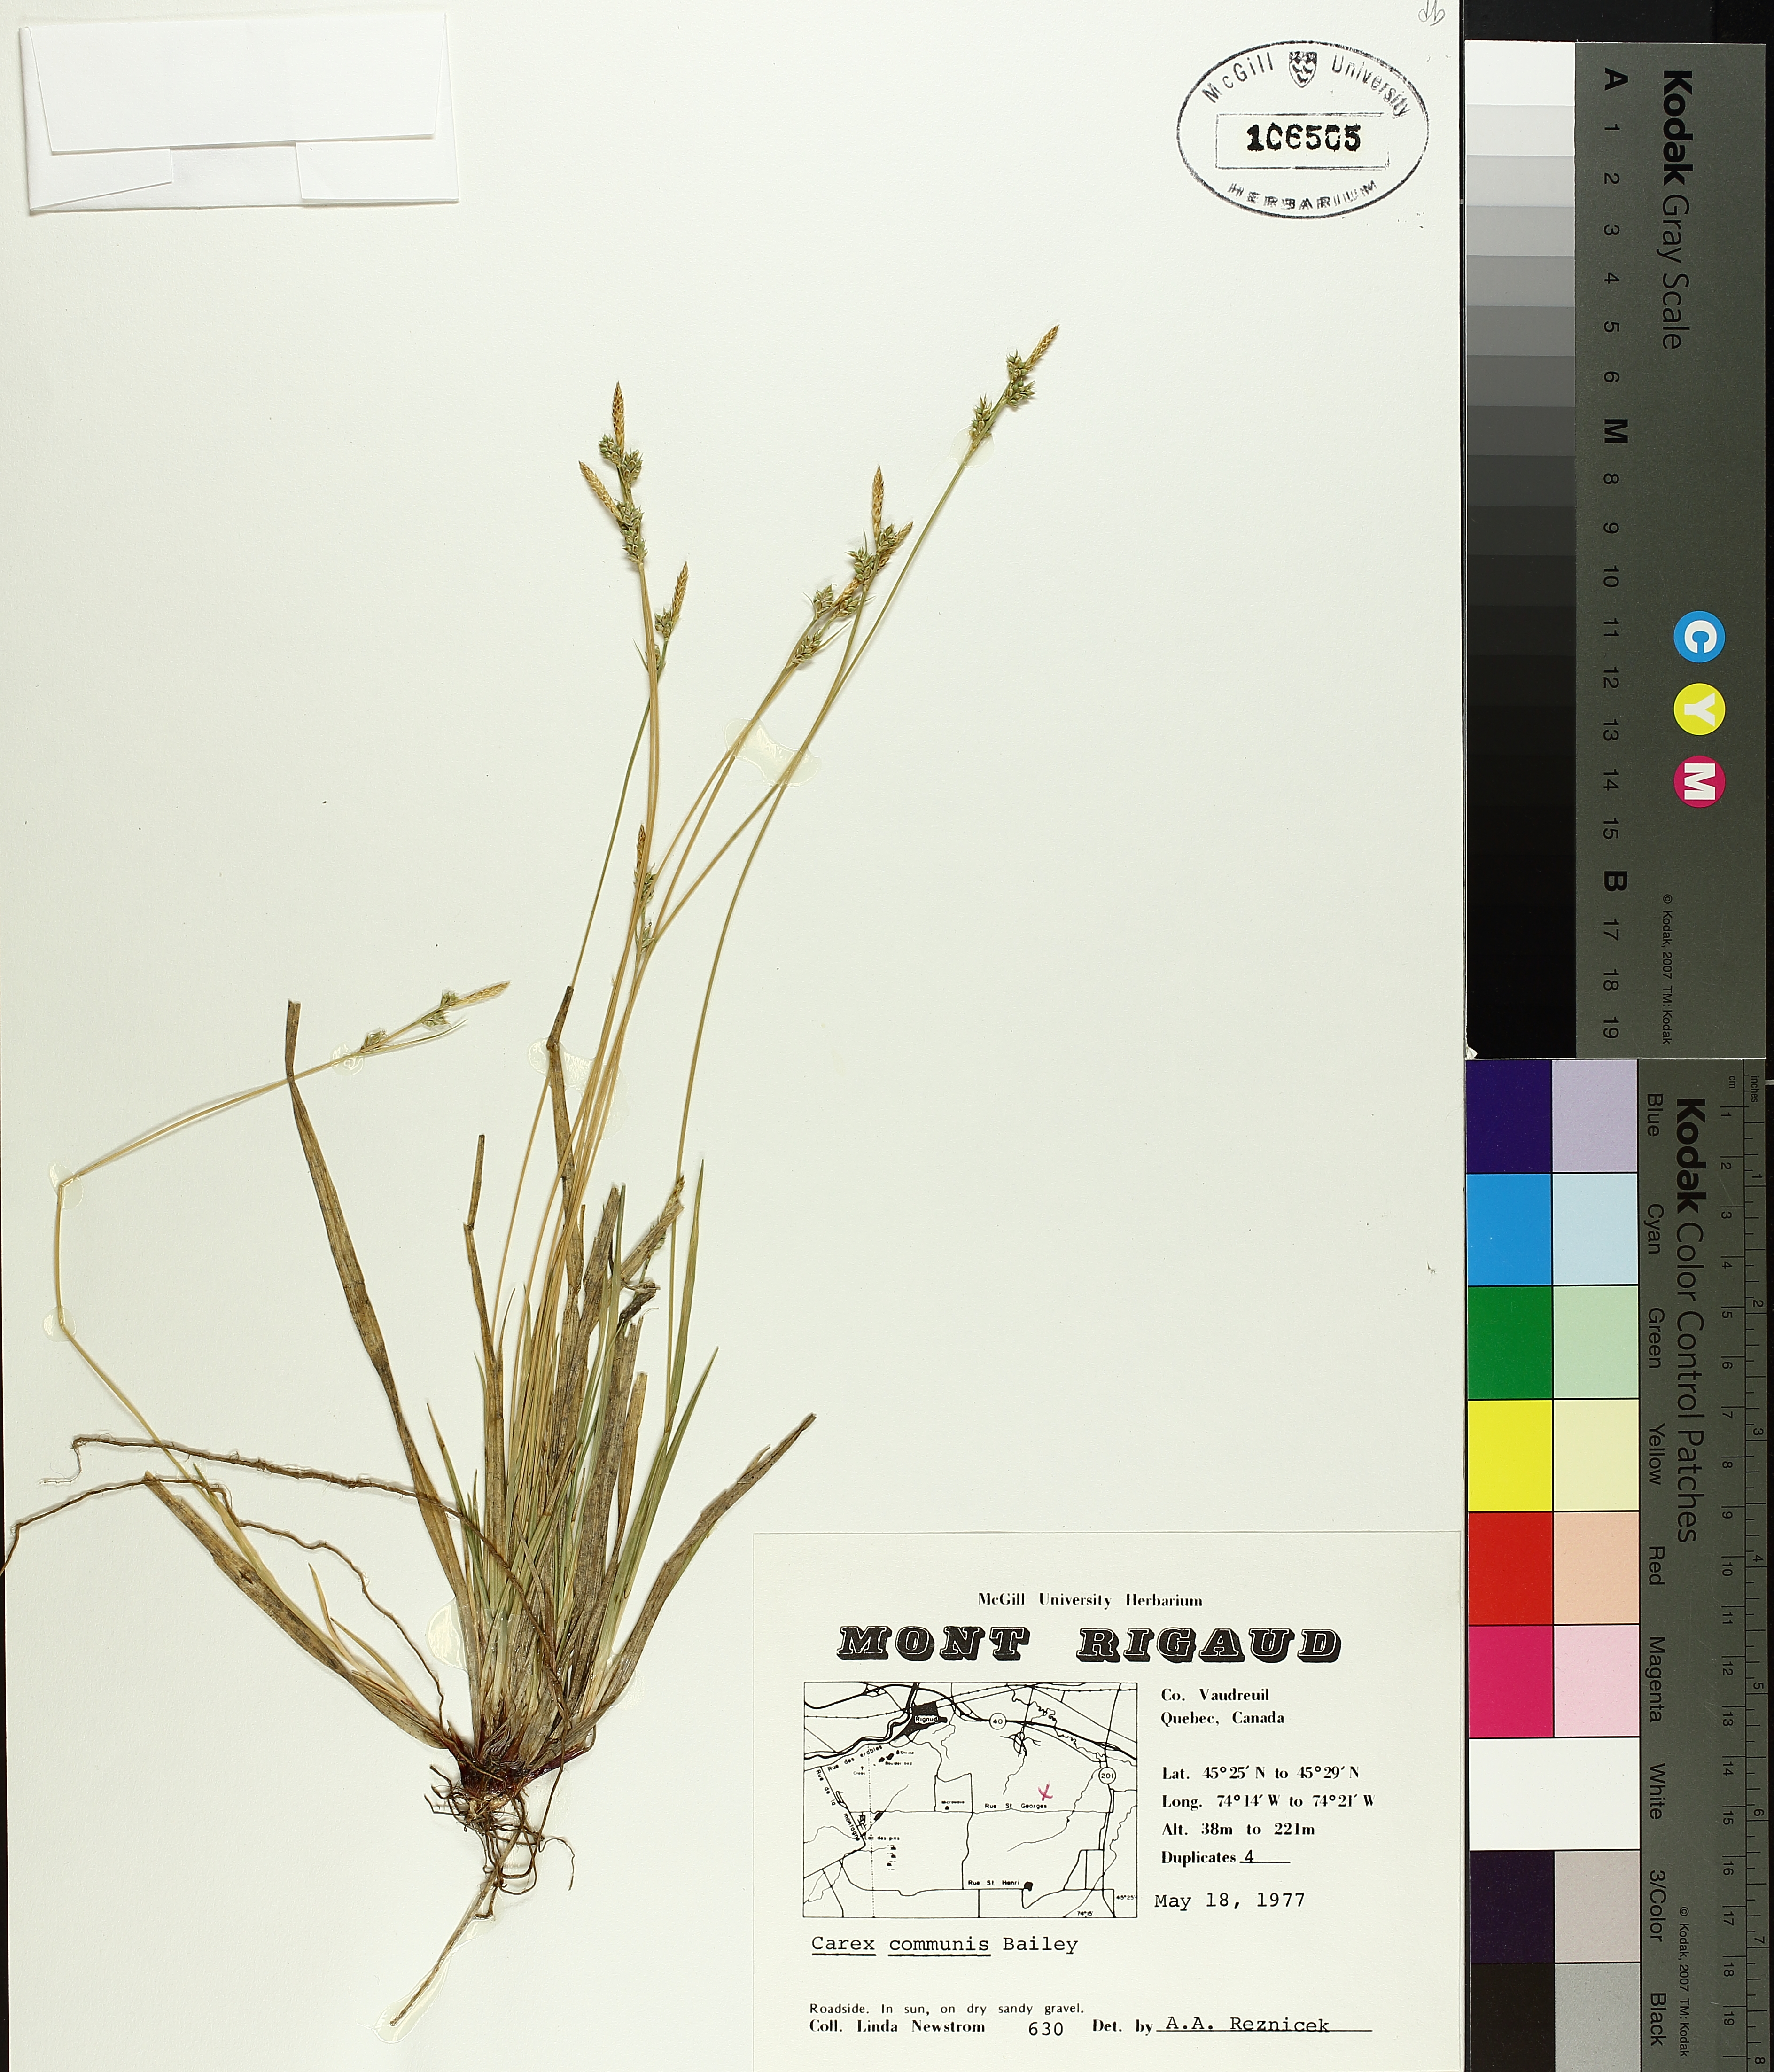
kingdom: Plantae
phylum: Tracheophyta
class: Liliopsida
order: Poales
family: Cyperaceae
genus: Carex
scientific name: Carex communis
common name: Colonial oak sedge
